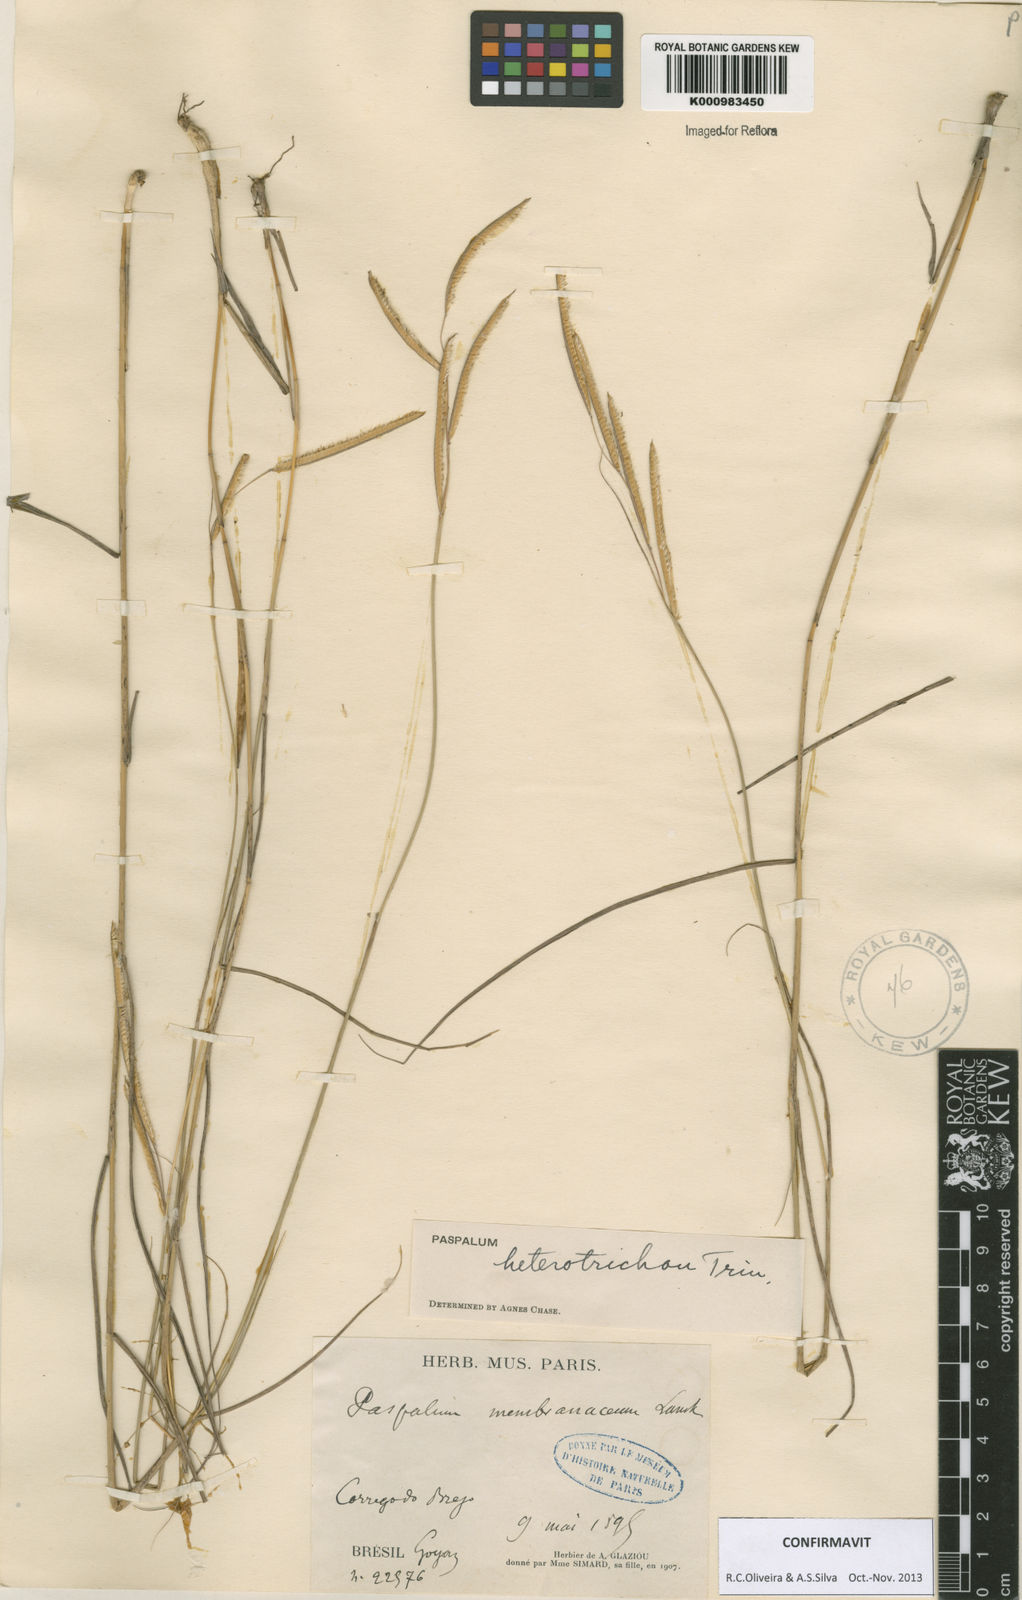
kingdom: Plantae
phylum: Tracheophyta
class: Liliopsida
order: Poales
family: Poaceae
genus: Paspalum
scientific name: Paspalum heterotrichon
